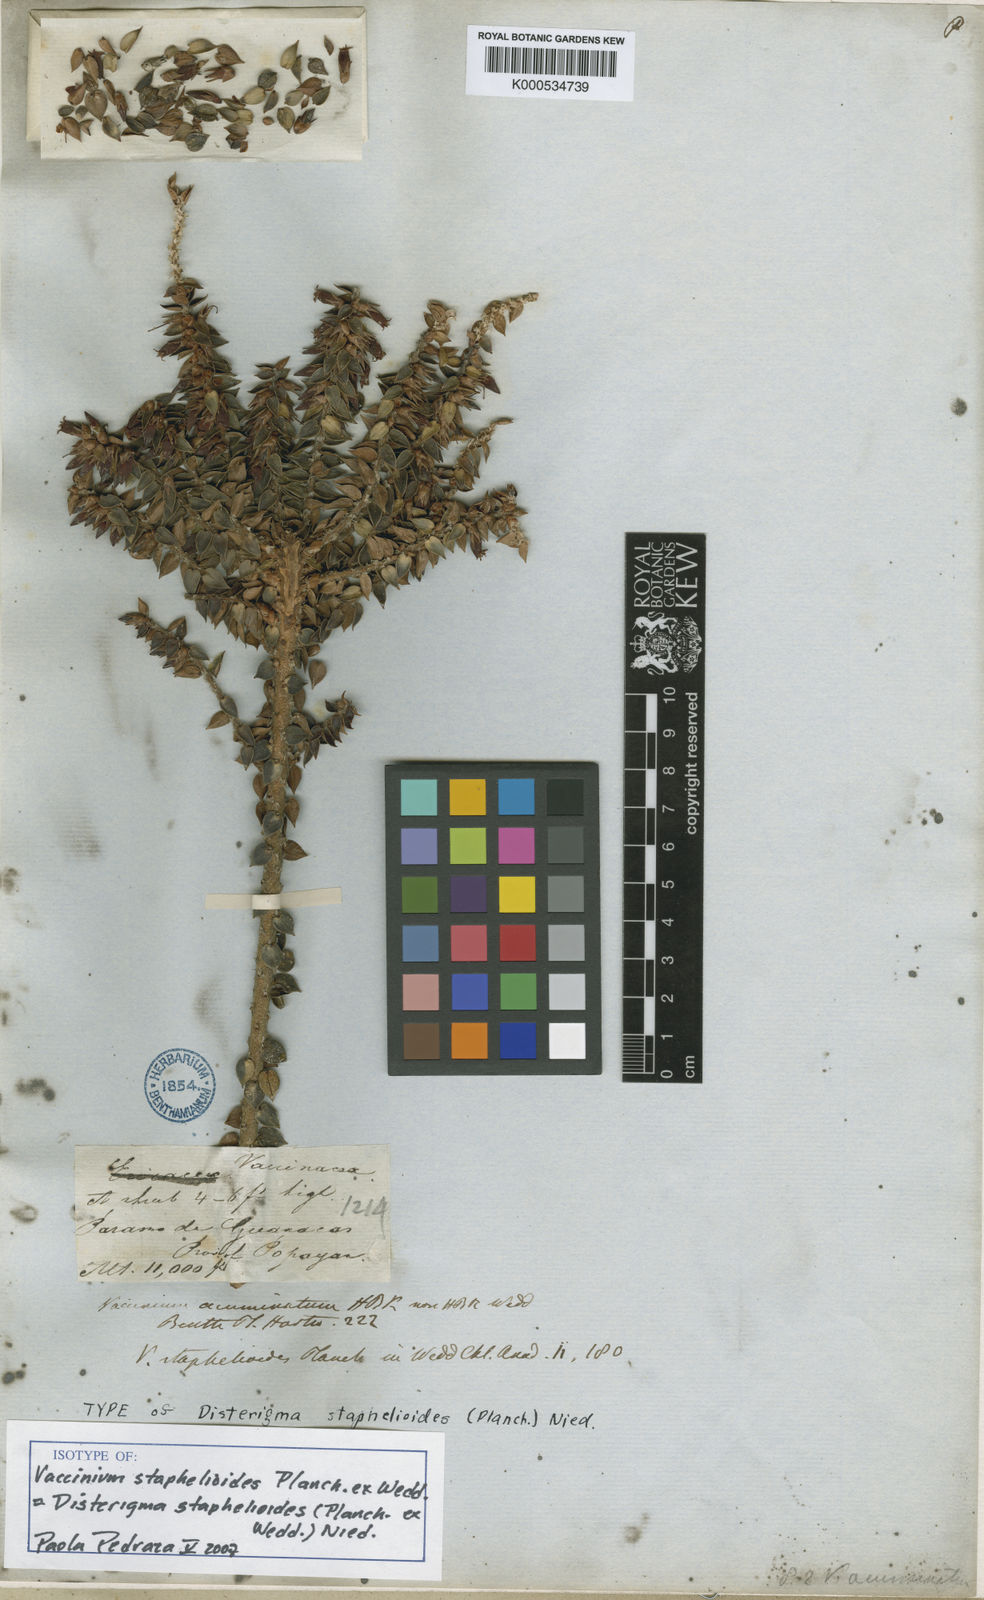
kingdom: Plantae
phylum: Tracheophyta
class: Magnoliopsida
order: Ericales
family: Ericaceae
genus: Disterigma
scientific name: Disterigma staphelioides
